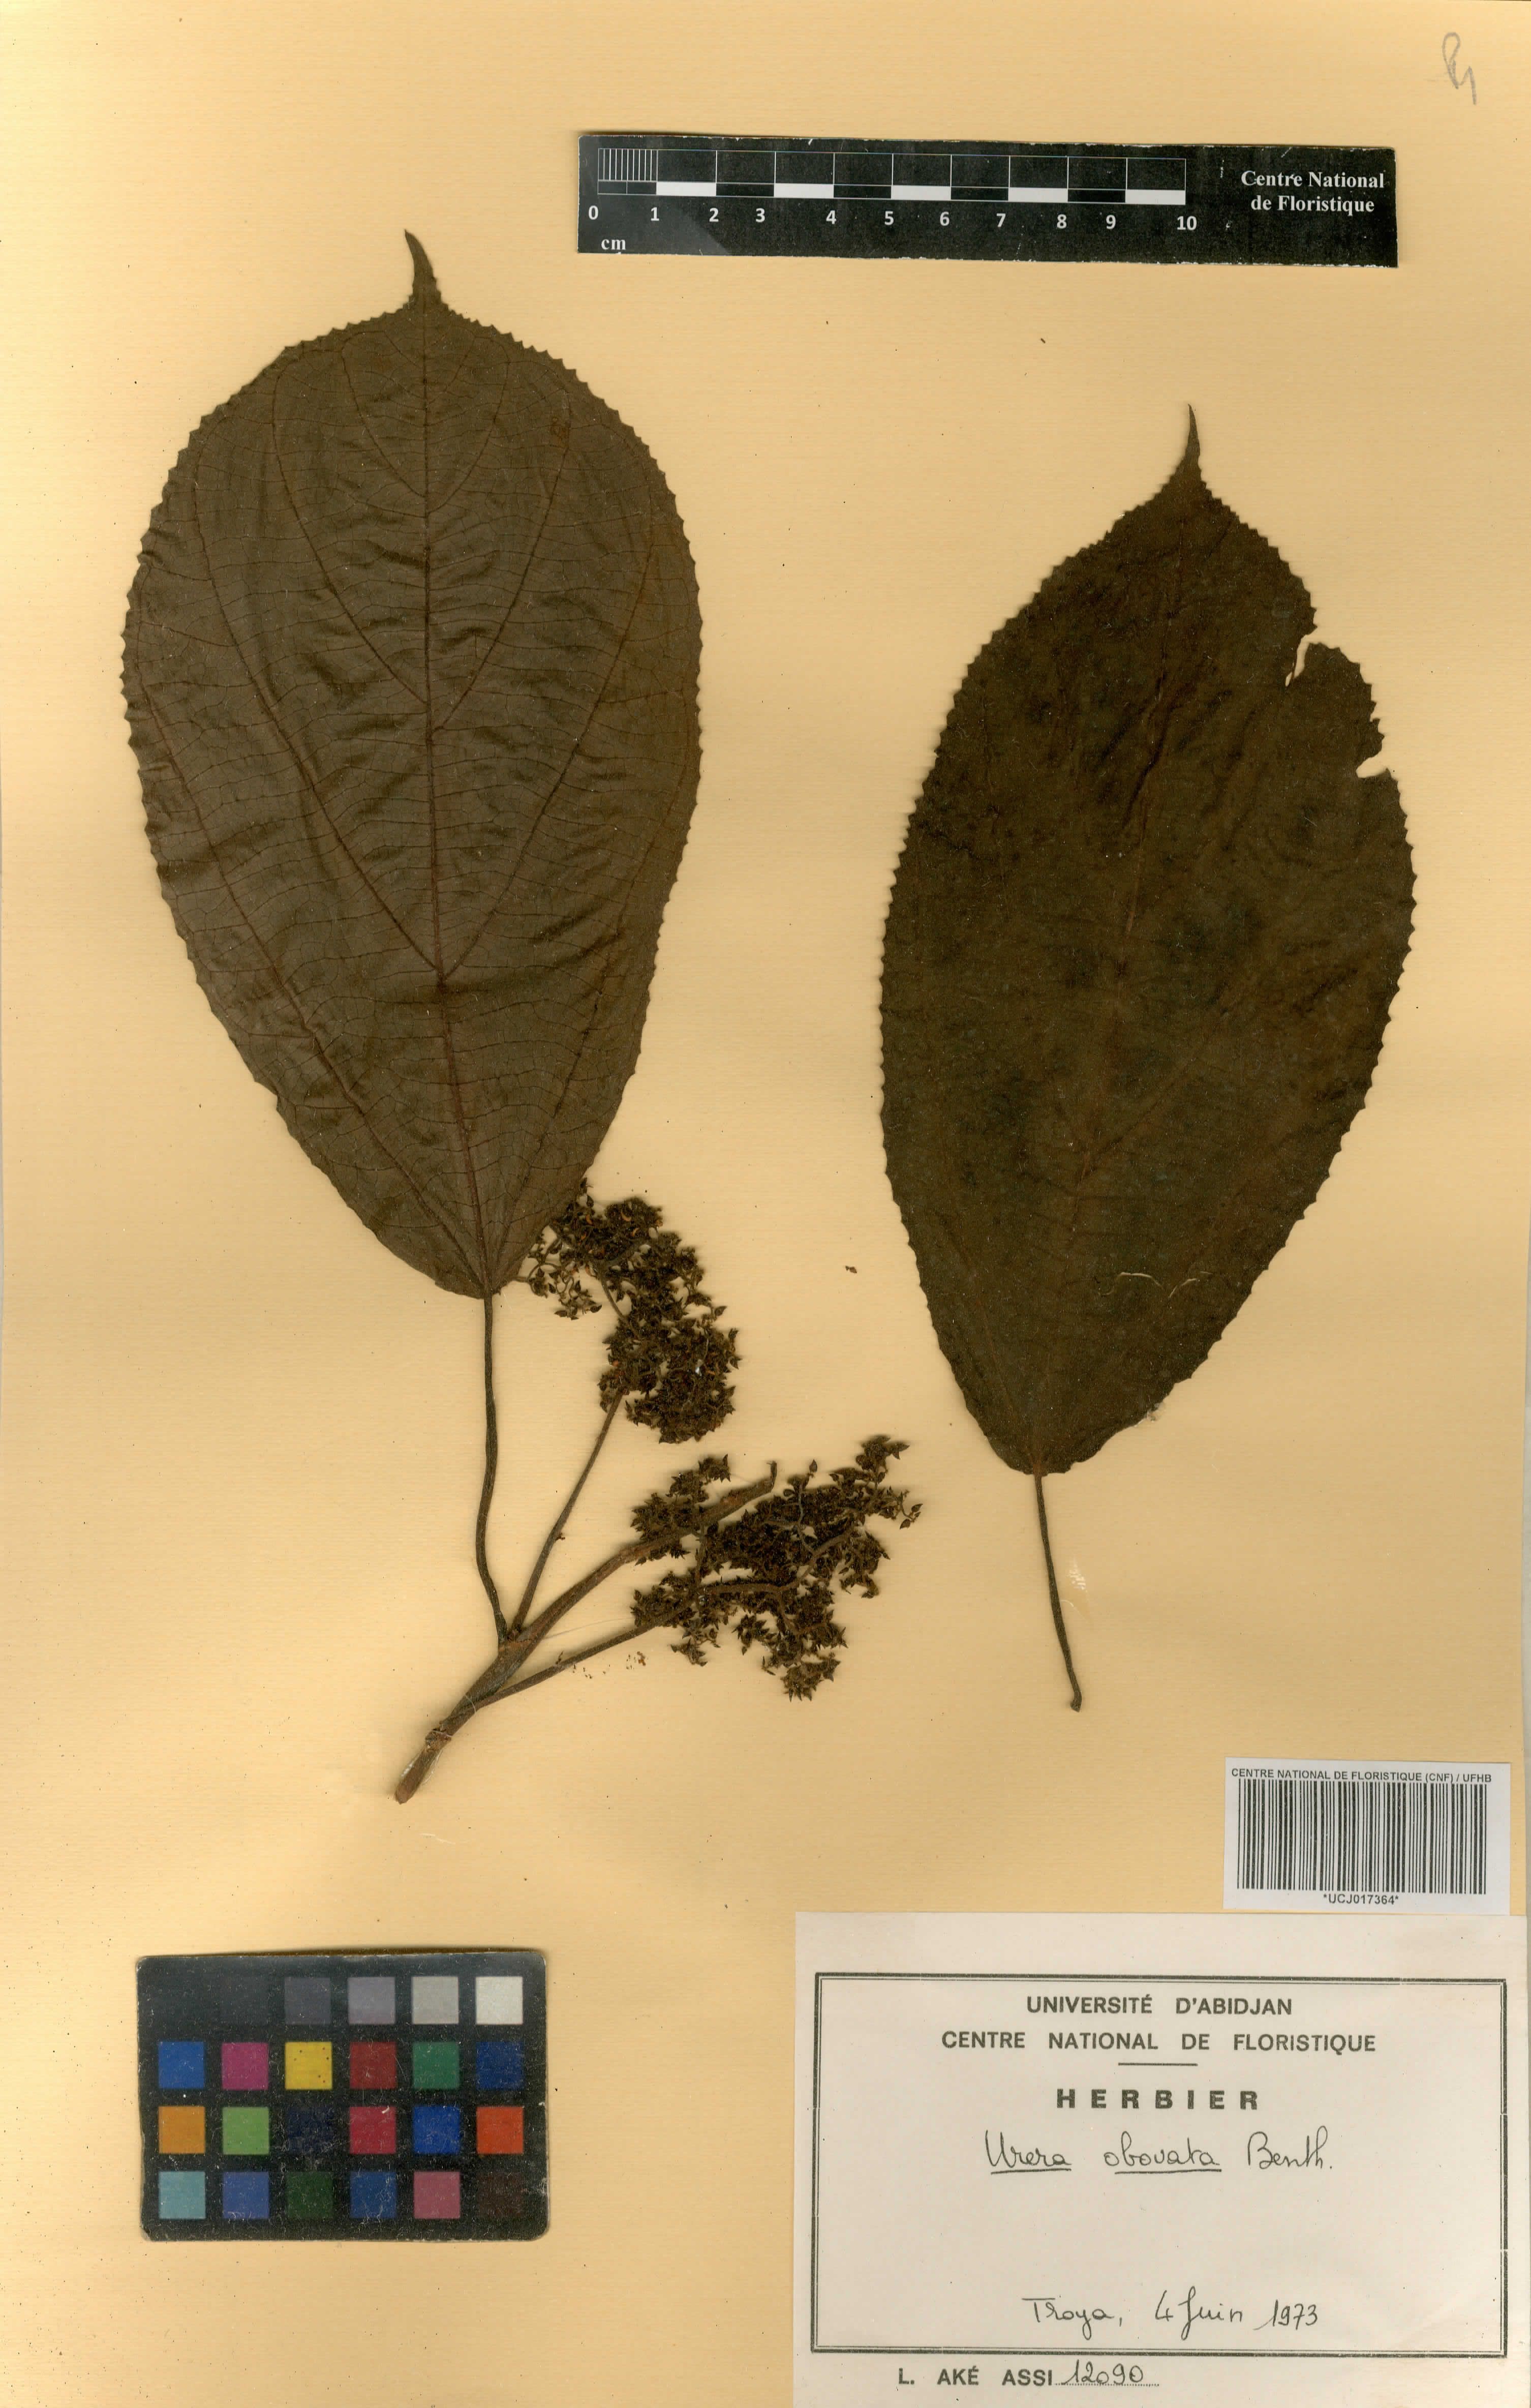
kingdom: Plantae
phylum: Tracheophyta
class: Magnoliopsida
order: Rosales
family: Urticaceae
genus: Scepocarpus
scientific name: Scepocarpus obovatus
